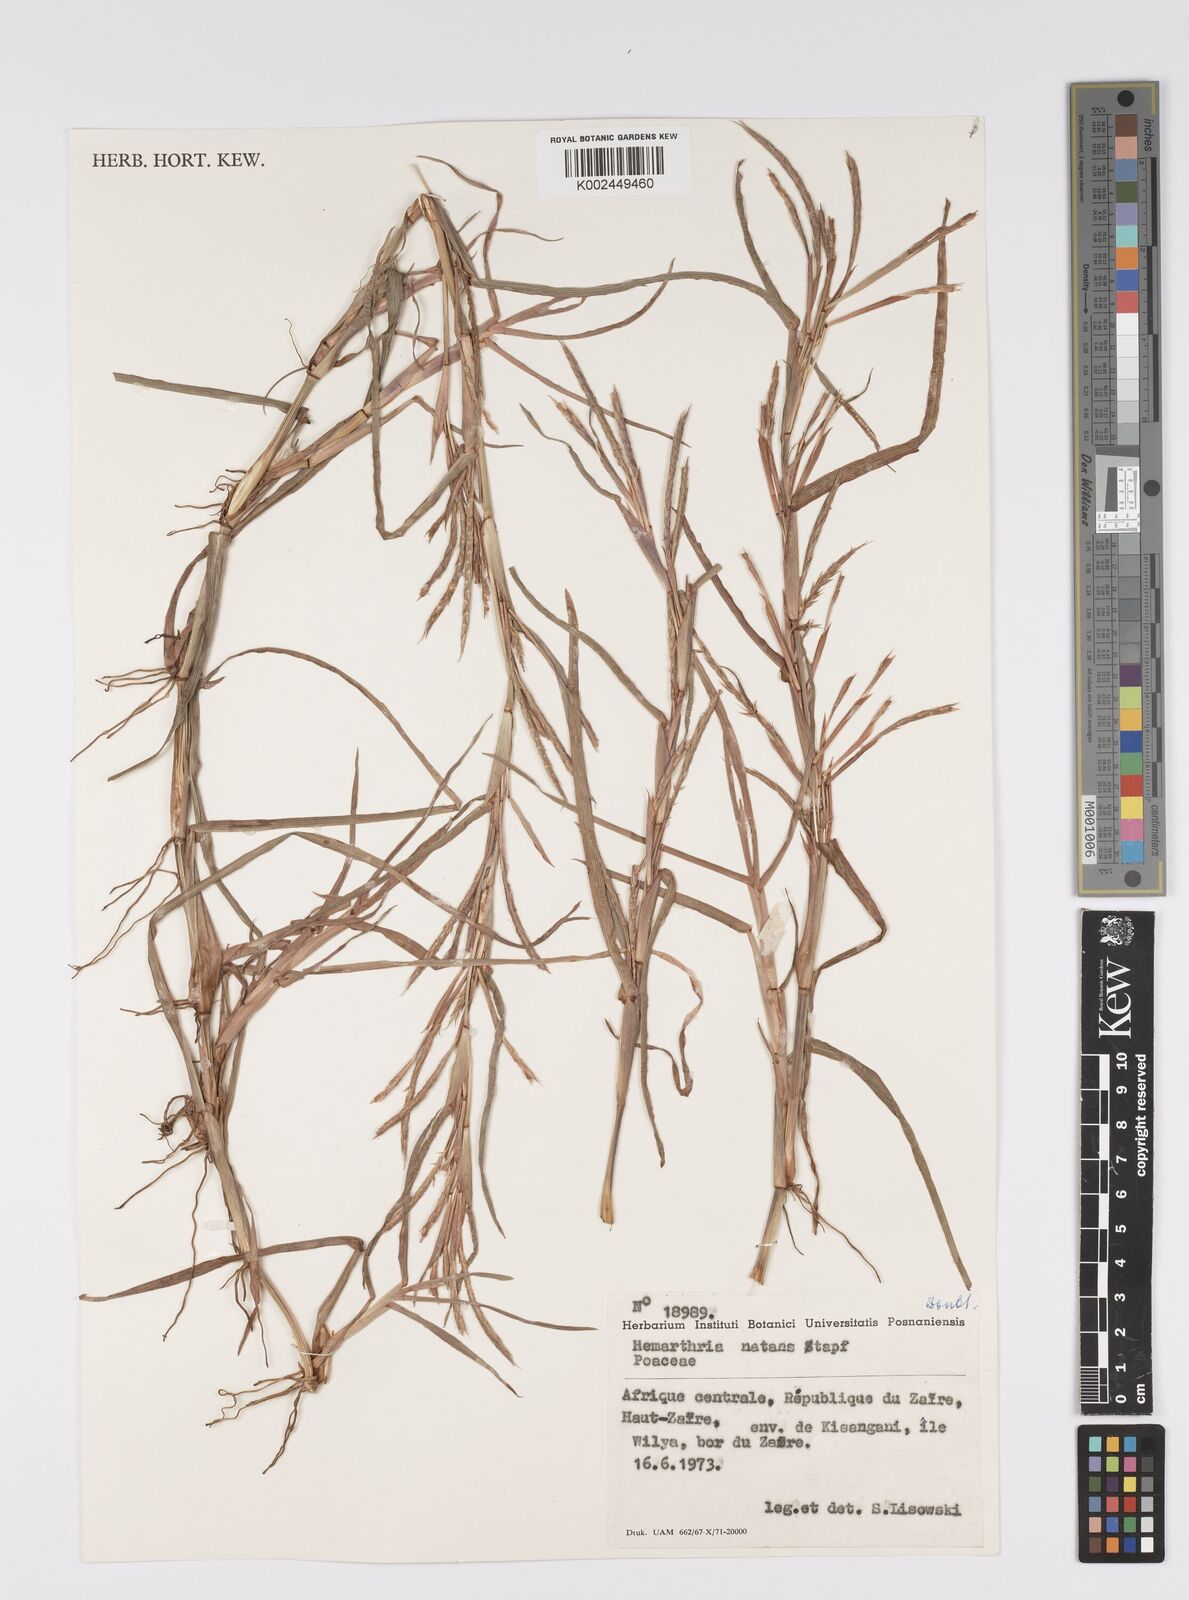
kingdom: Plantae
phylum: Tracheophyta
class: Liliopsida
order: Poales
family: Poaceae
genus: Hemarthria
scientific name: Hemarthria natans
